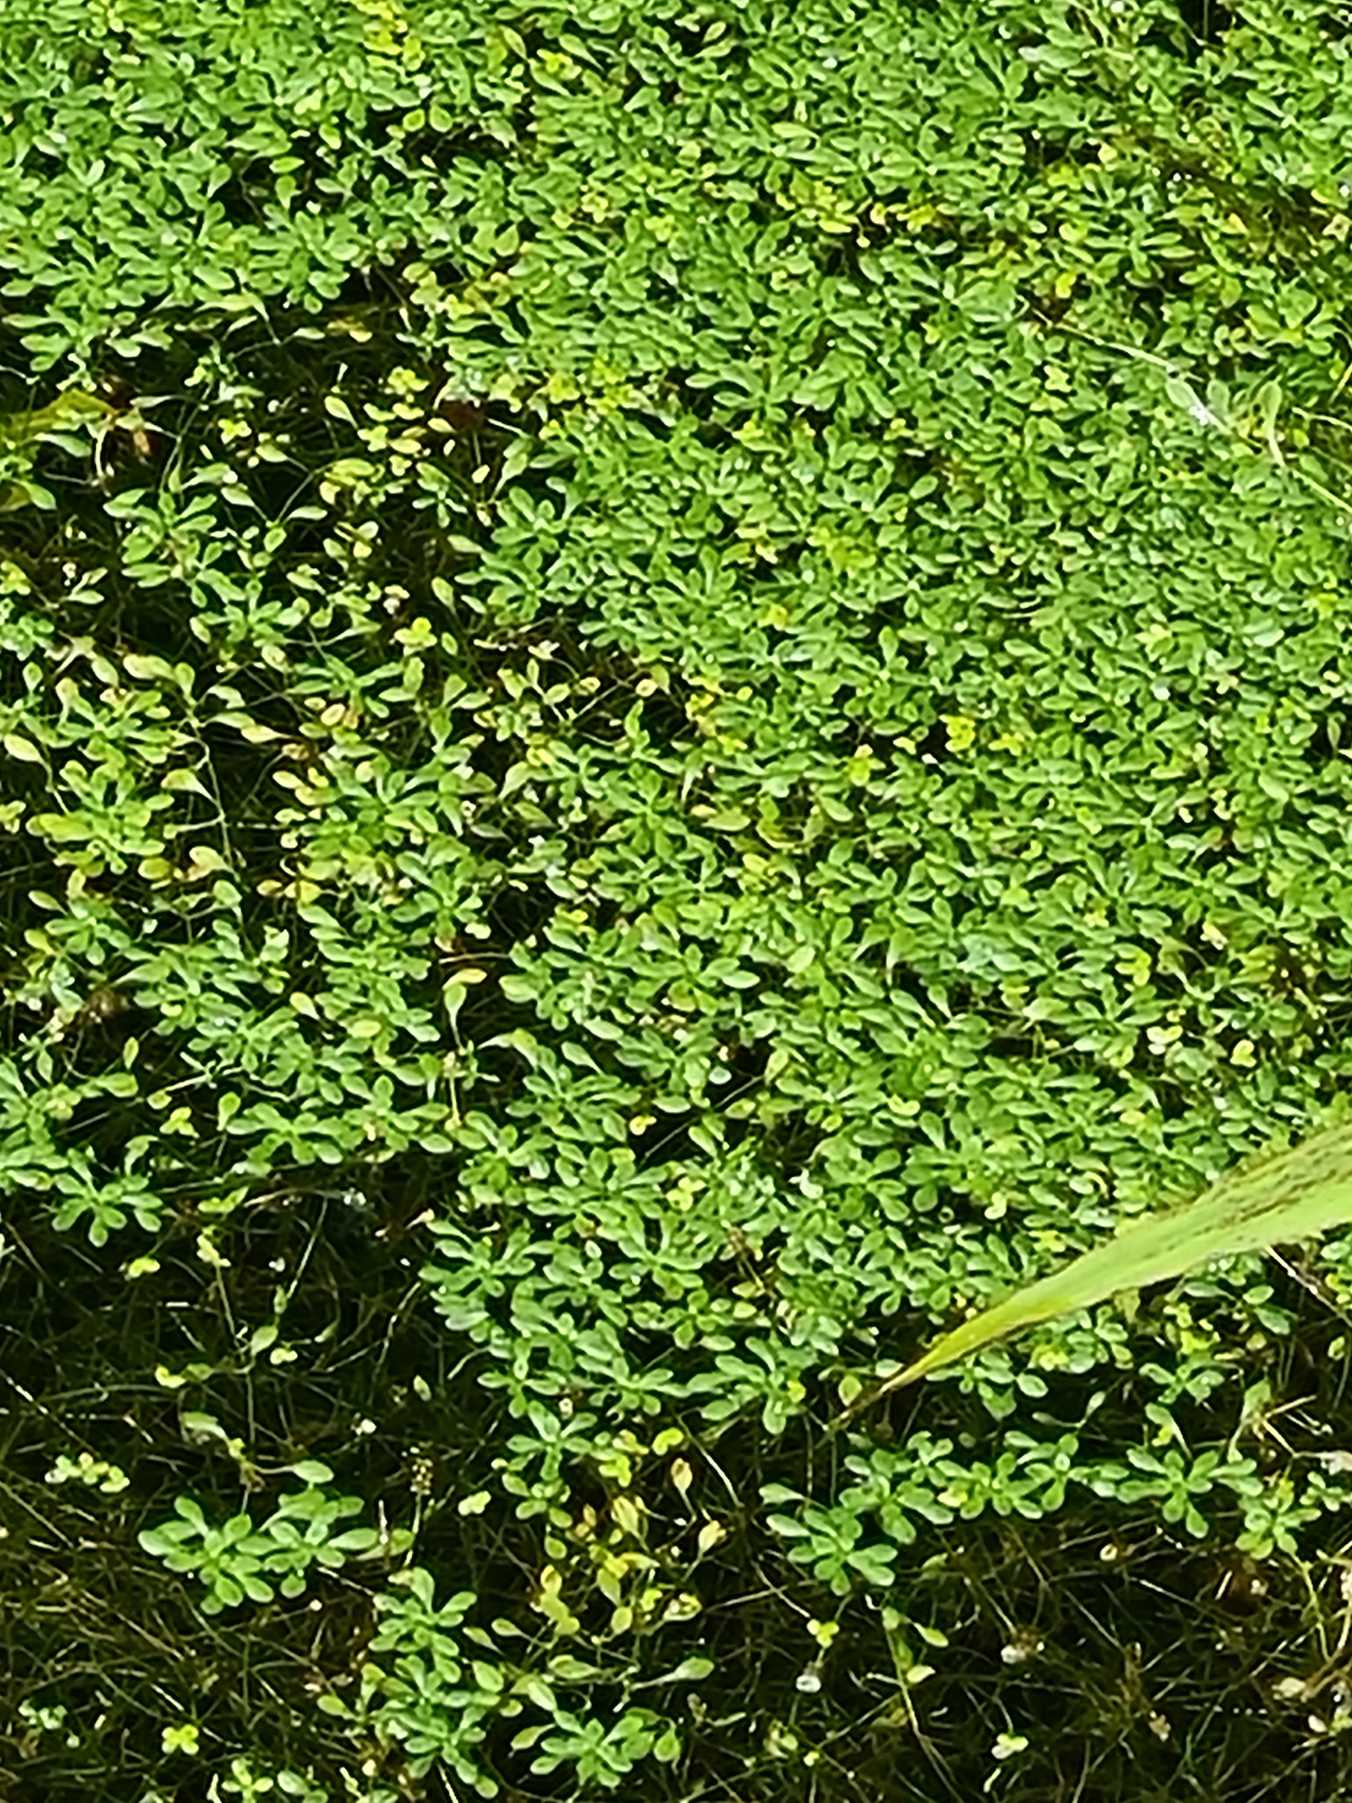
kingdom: Plantae
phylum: Tracheophyta
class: Magnoliopsida
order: Lamiales
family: Plantaginaceae
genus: Callitriche
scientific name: Callitriche
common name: Vandstjerneslægten
